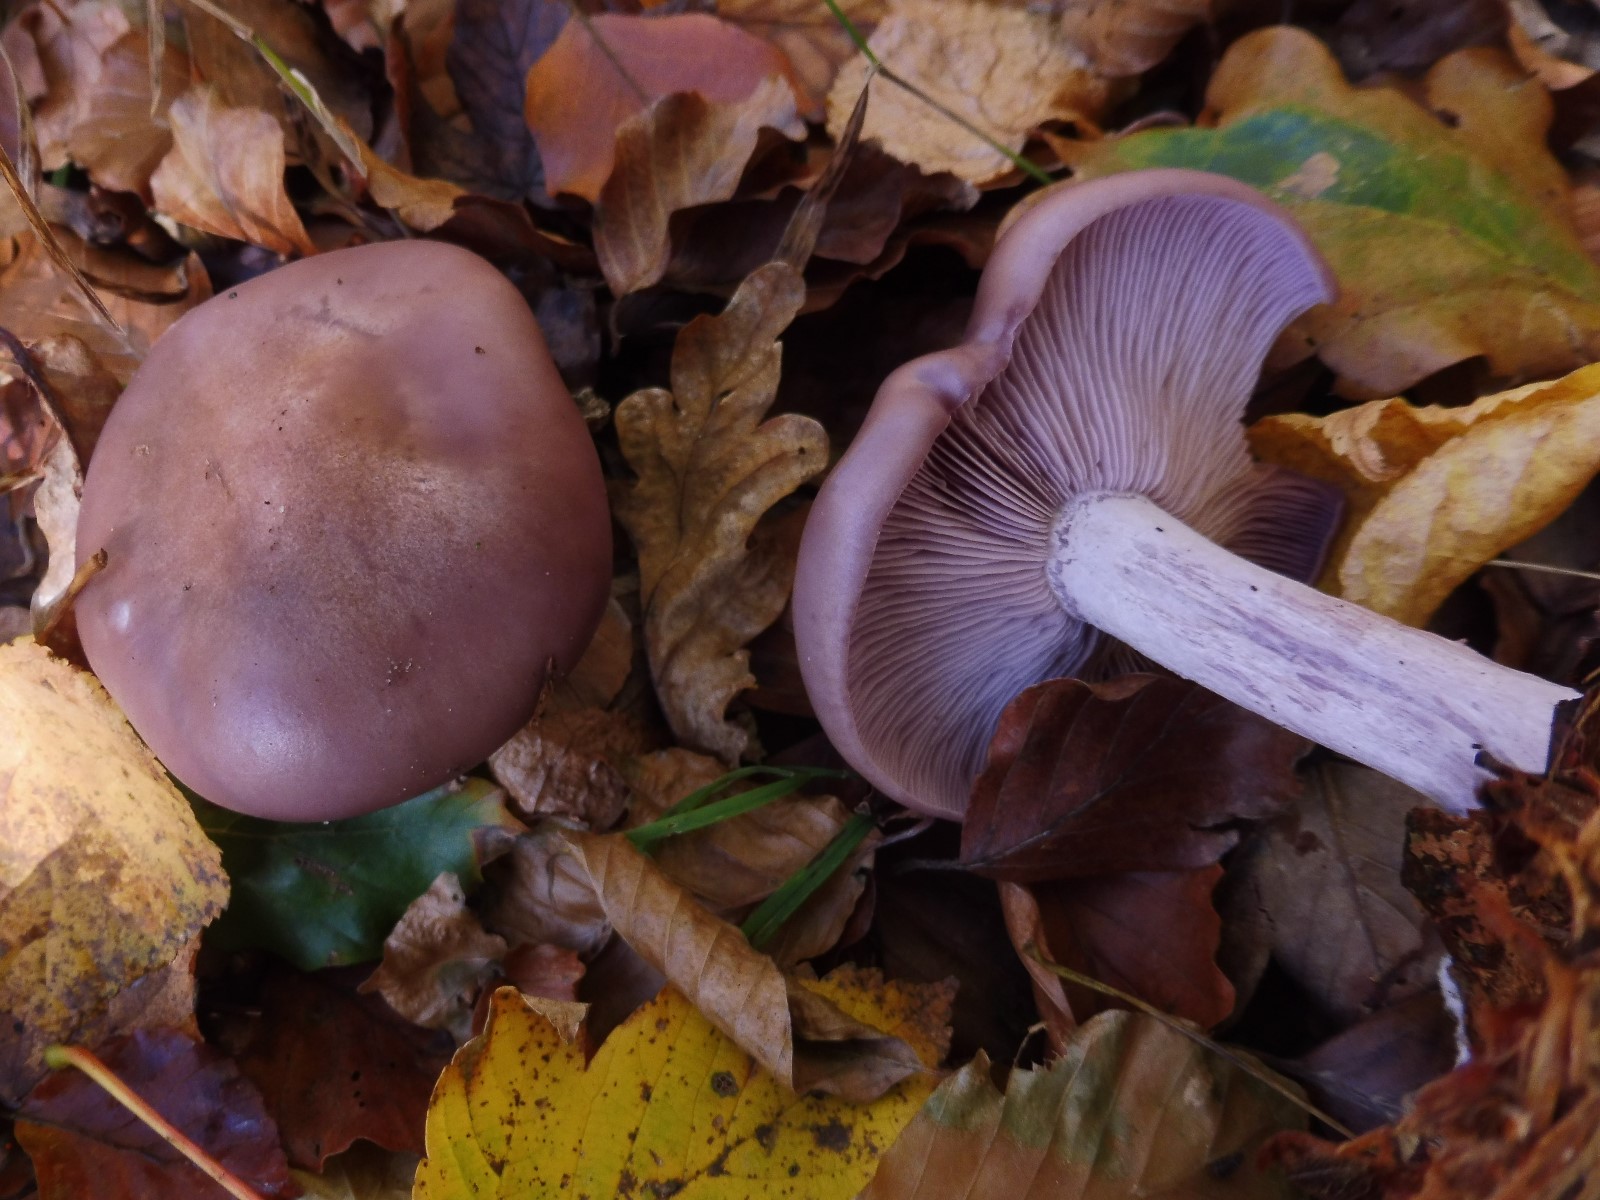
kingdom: Fungi
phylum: Basidiomycota
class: Agaricomycetes
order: Agaricales
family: Tricholomataceae
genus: Lepista
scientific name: Lepista nuda
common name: violet hekseringshat
